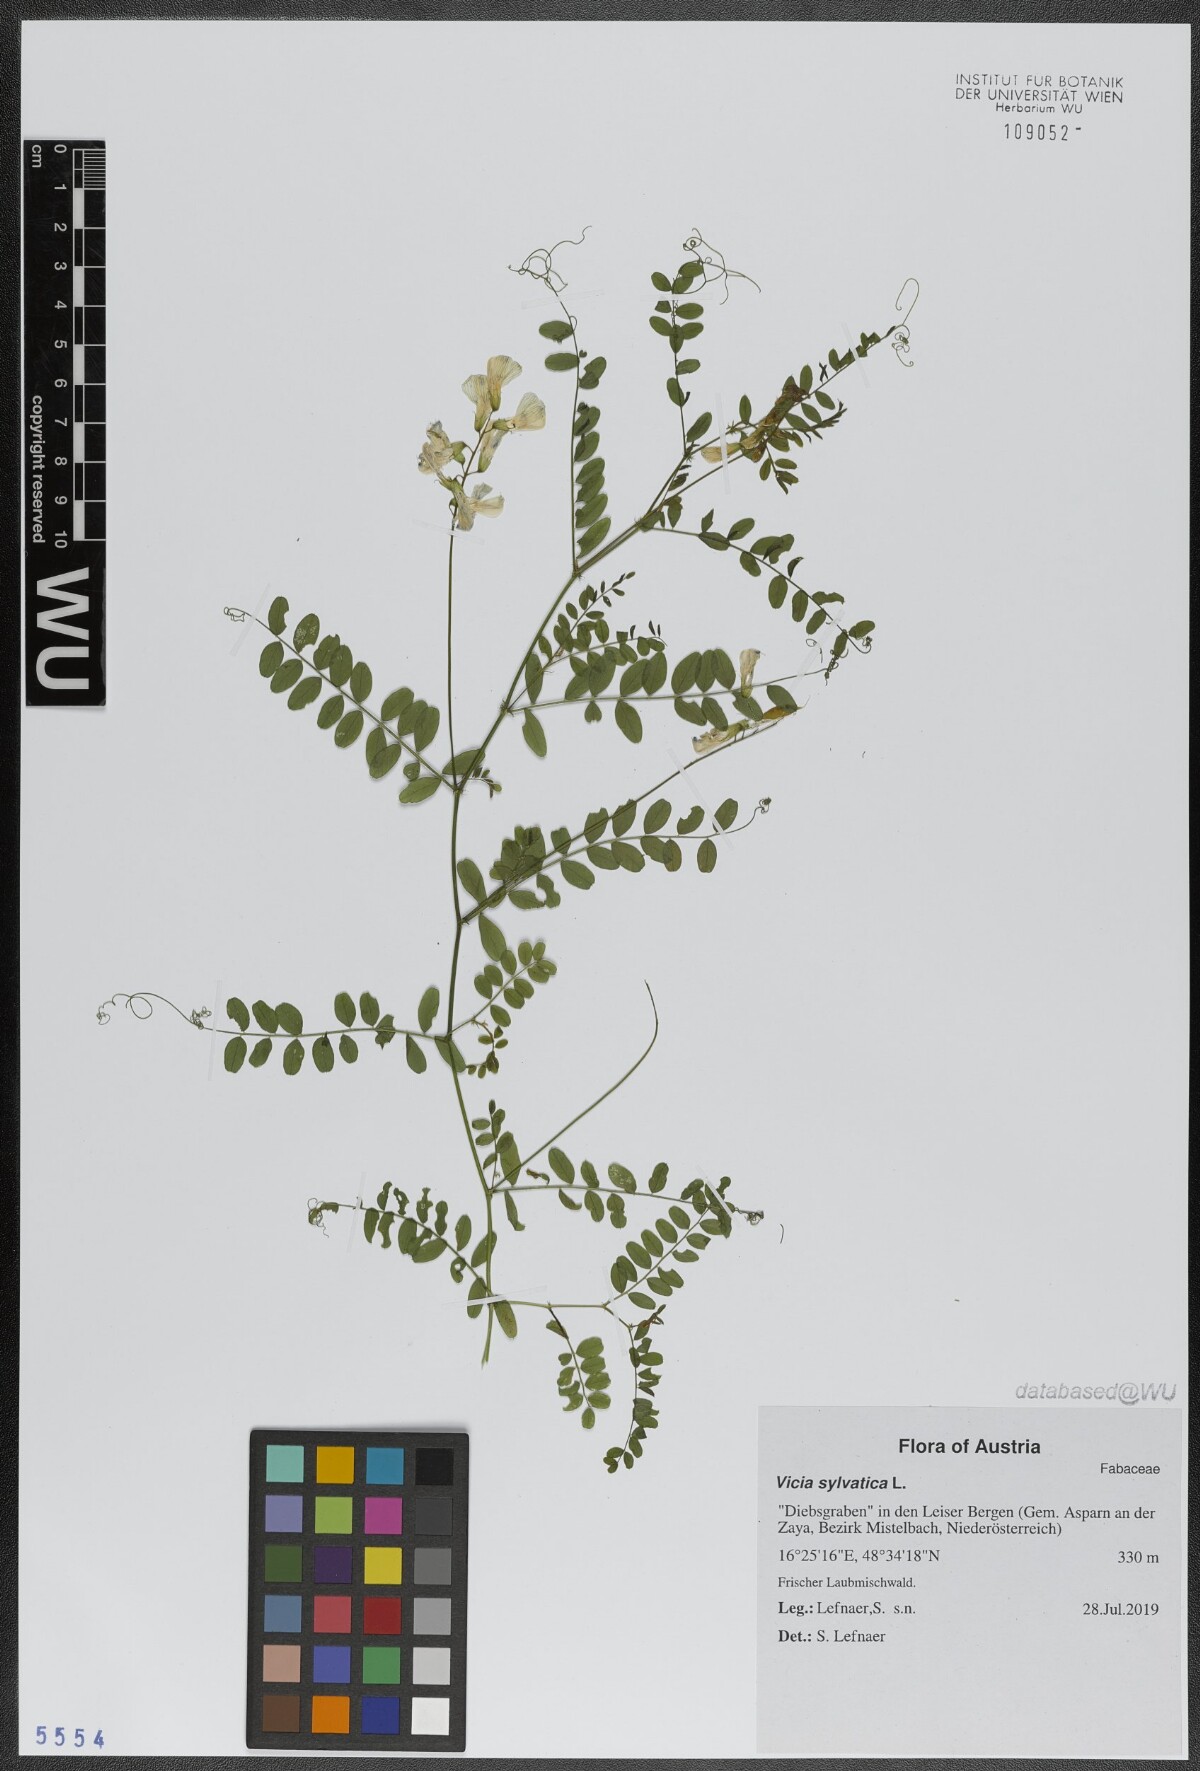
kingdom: Plantae
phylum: Tracheophyta
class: Magnoliopsida
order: Fabales
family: Fabaceae
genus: Vicia
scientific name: Vicia sylvatica
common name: Wood vetch
